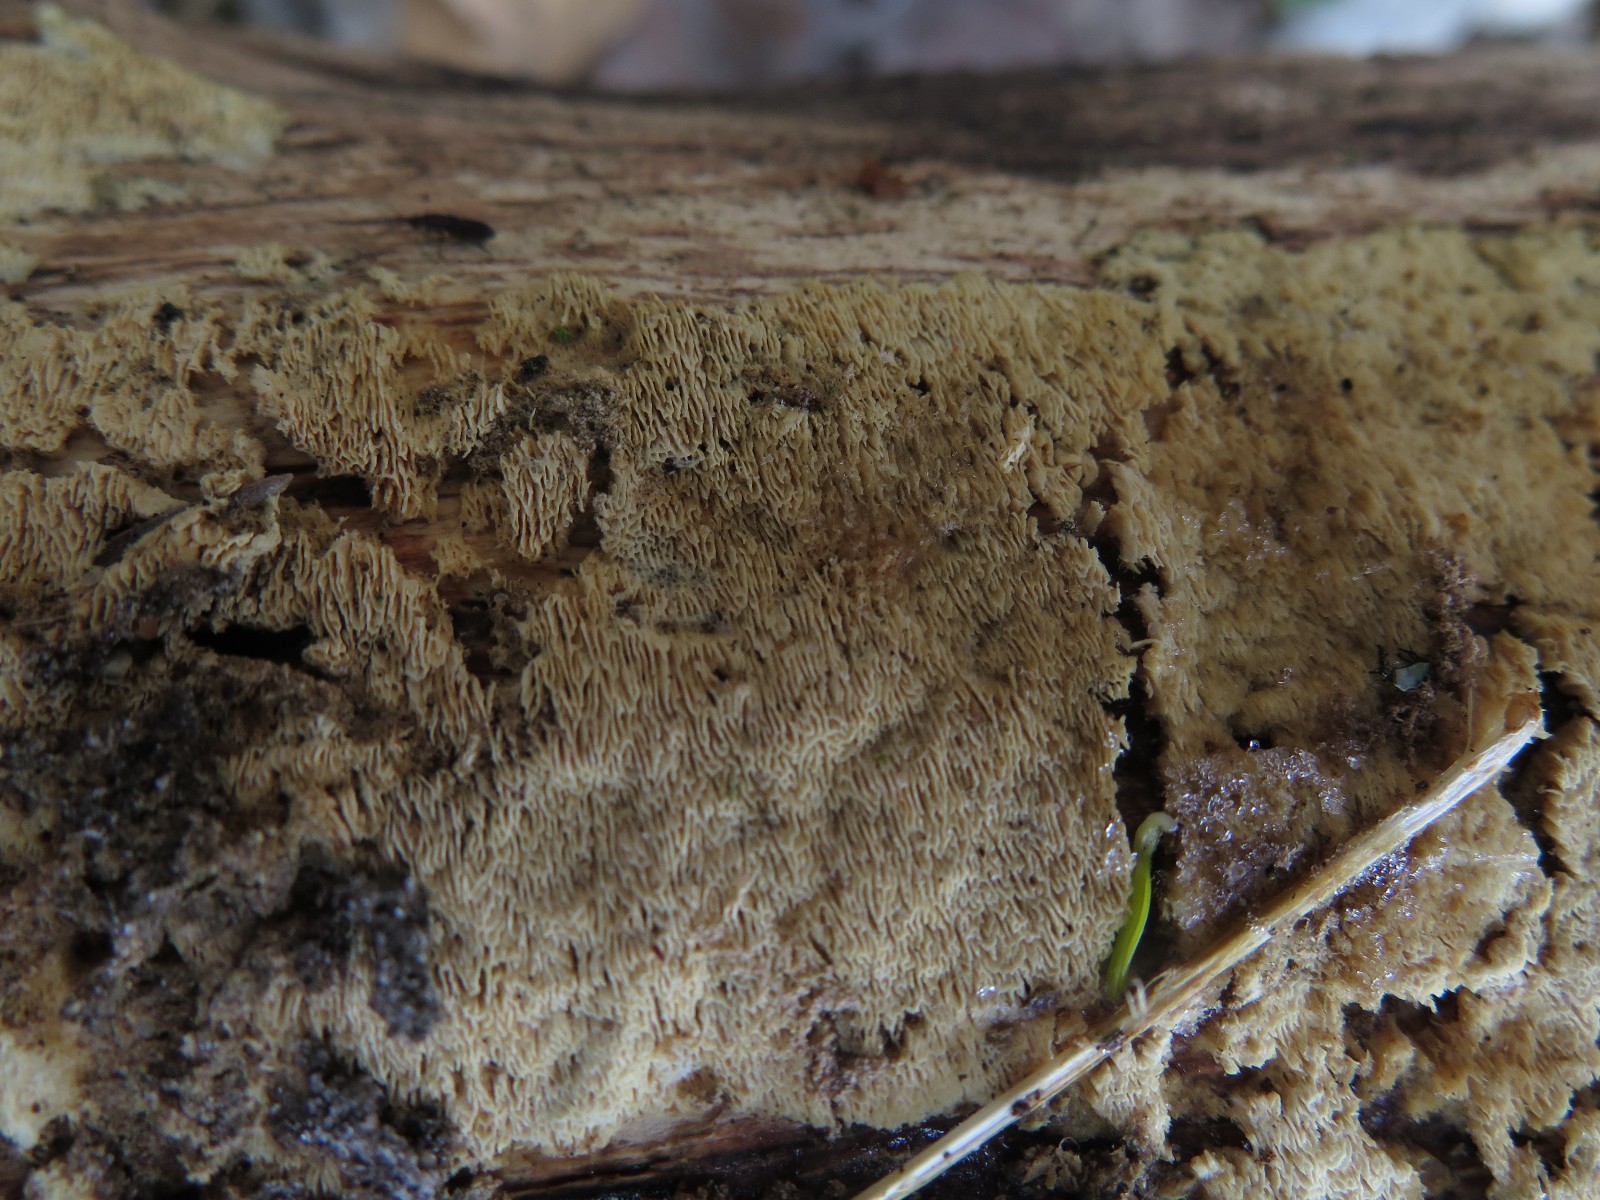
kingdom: Fungi
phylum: Basidiomycota
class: Agaricomycetes
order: Polyporales
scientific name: Polyporales
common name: poresvampordenen
